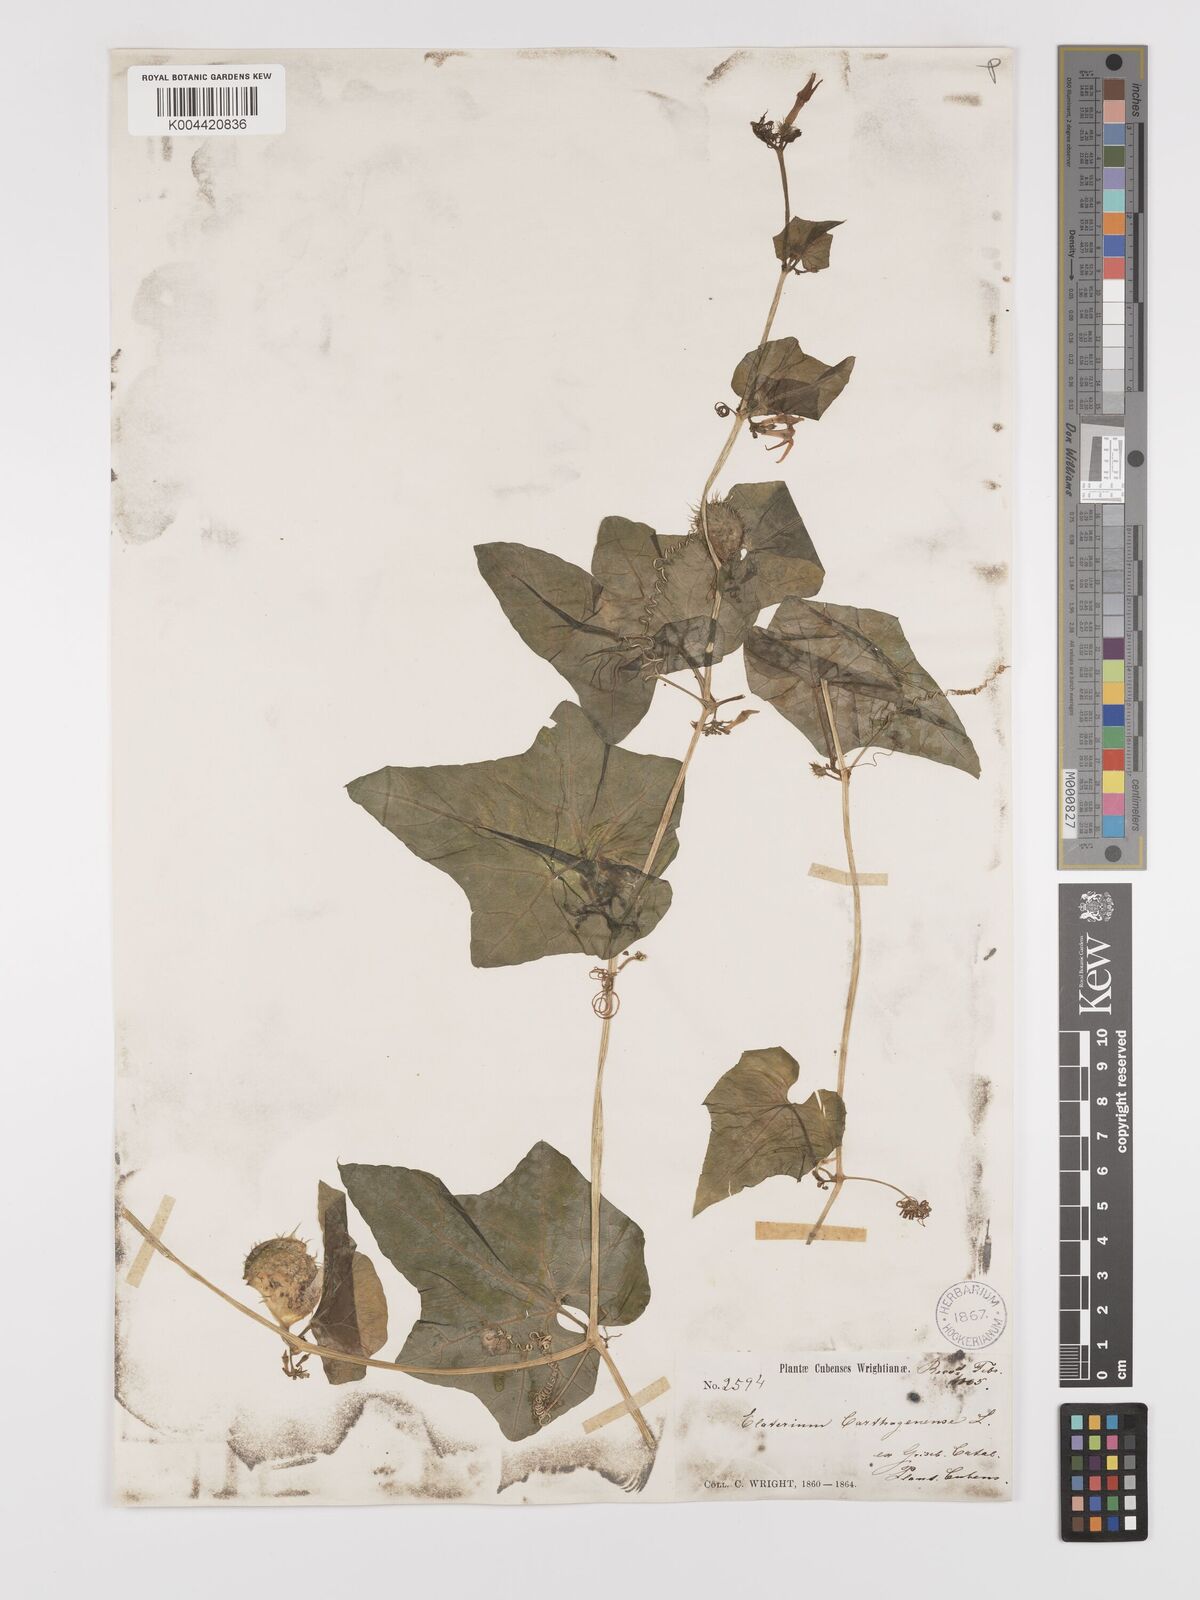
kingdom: Plantae
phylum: Tracheophyta
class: Magnoliopsida
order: Cucurbitales
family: Cucurbitaceae
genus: Cyclanthera
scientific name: Cyclanthera
